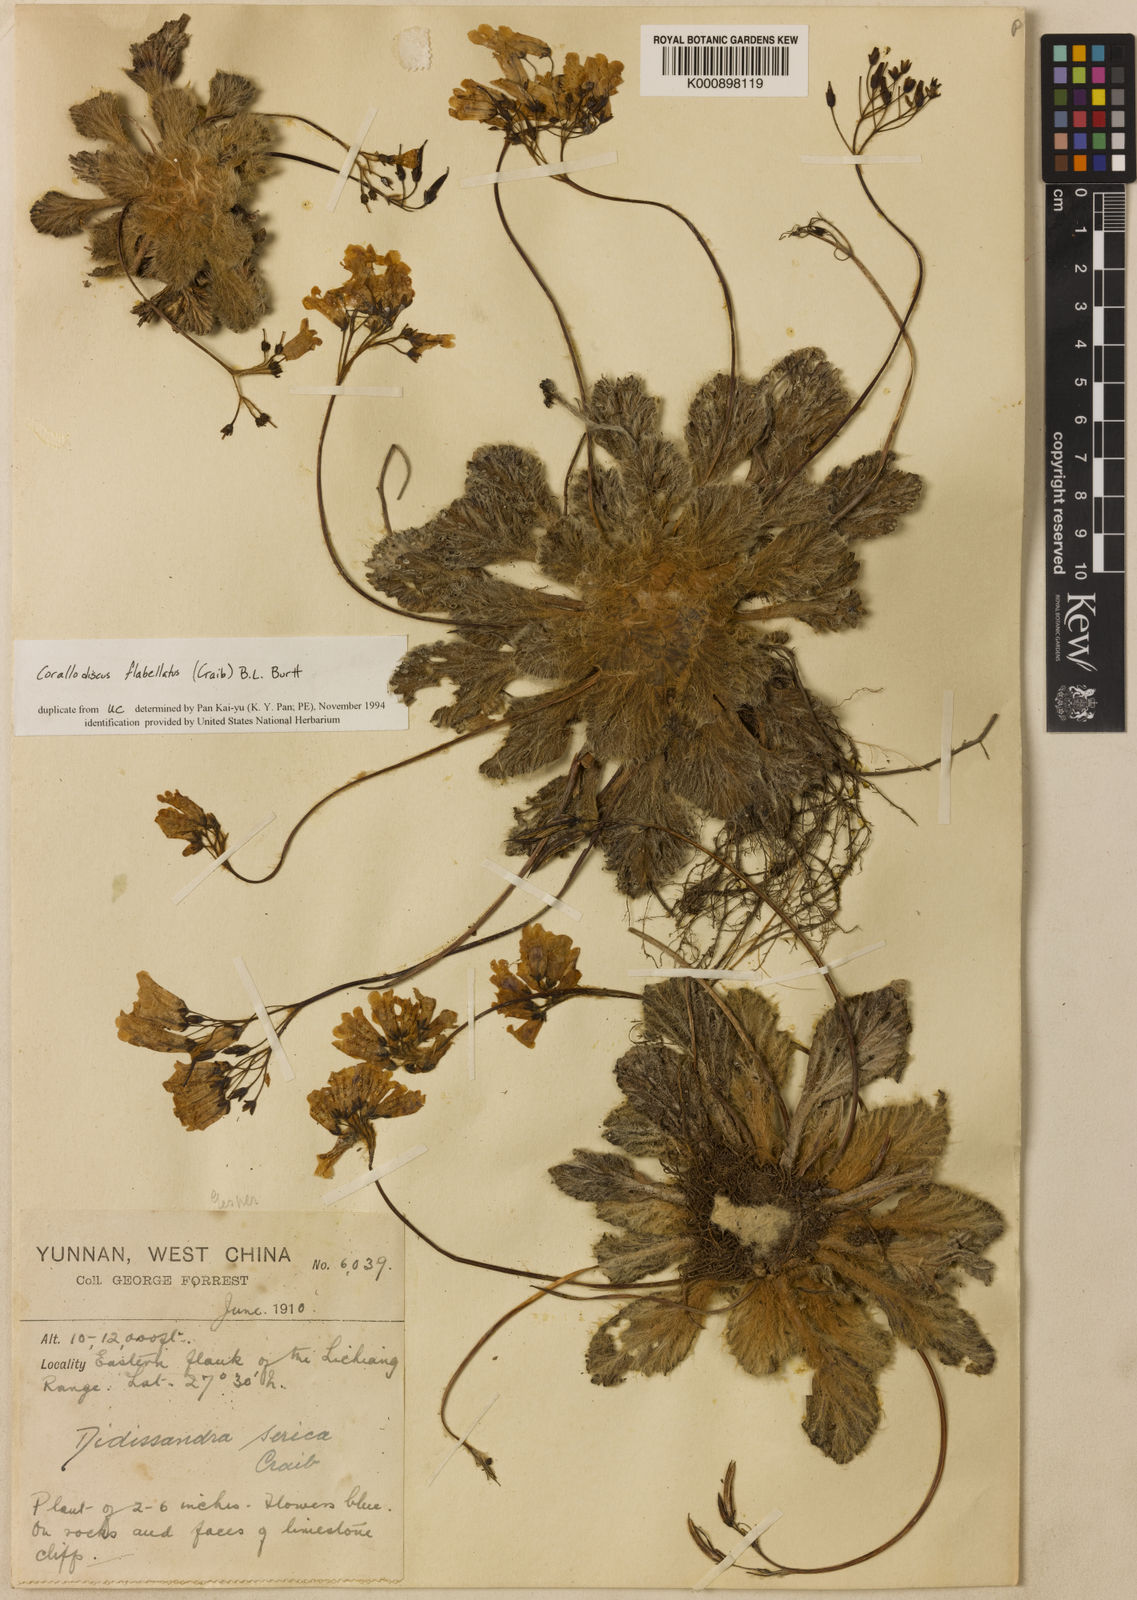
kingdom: Plantae
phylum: Tracheophyta
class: Magnoliopsida
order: Lamiales
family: Gesneriaceae
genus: Corallodiscus
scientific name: Corallodiscus lanuginosus
